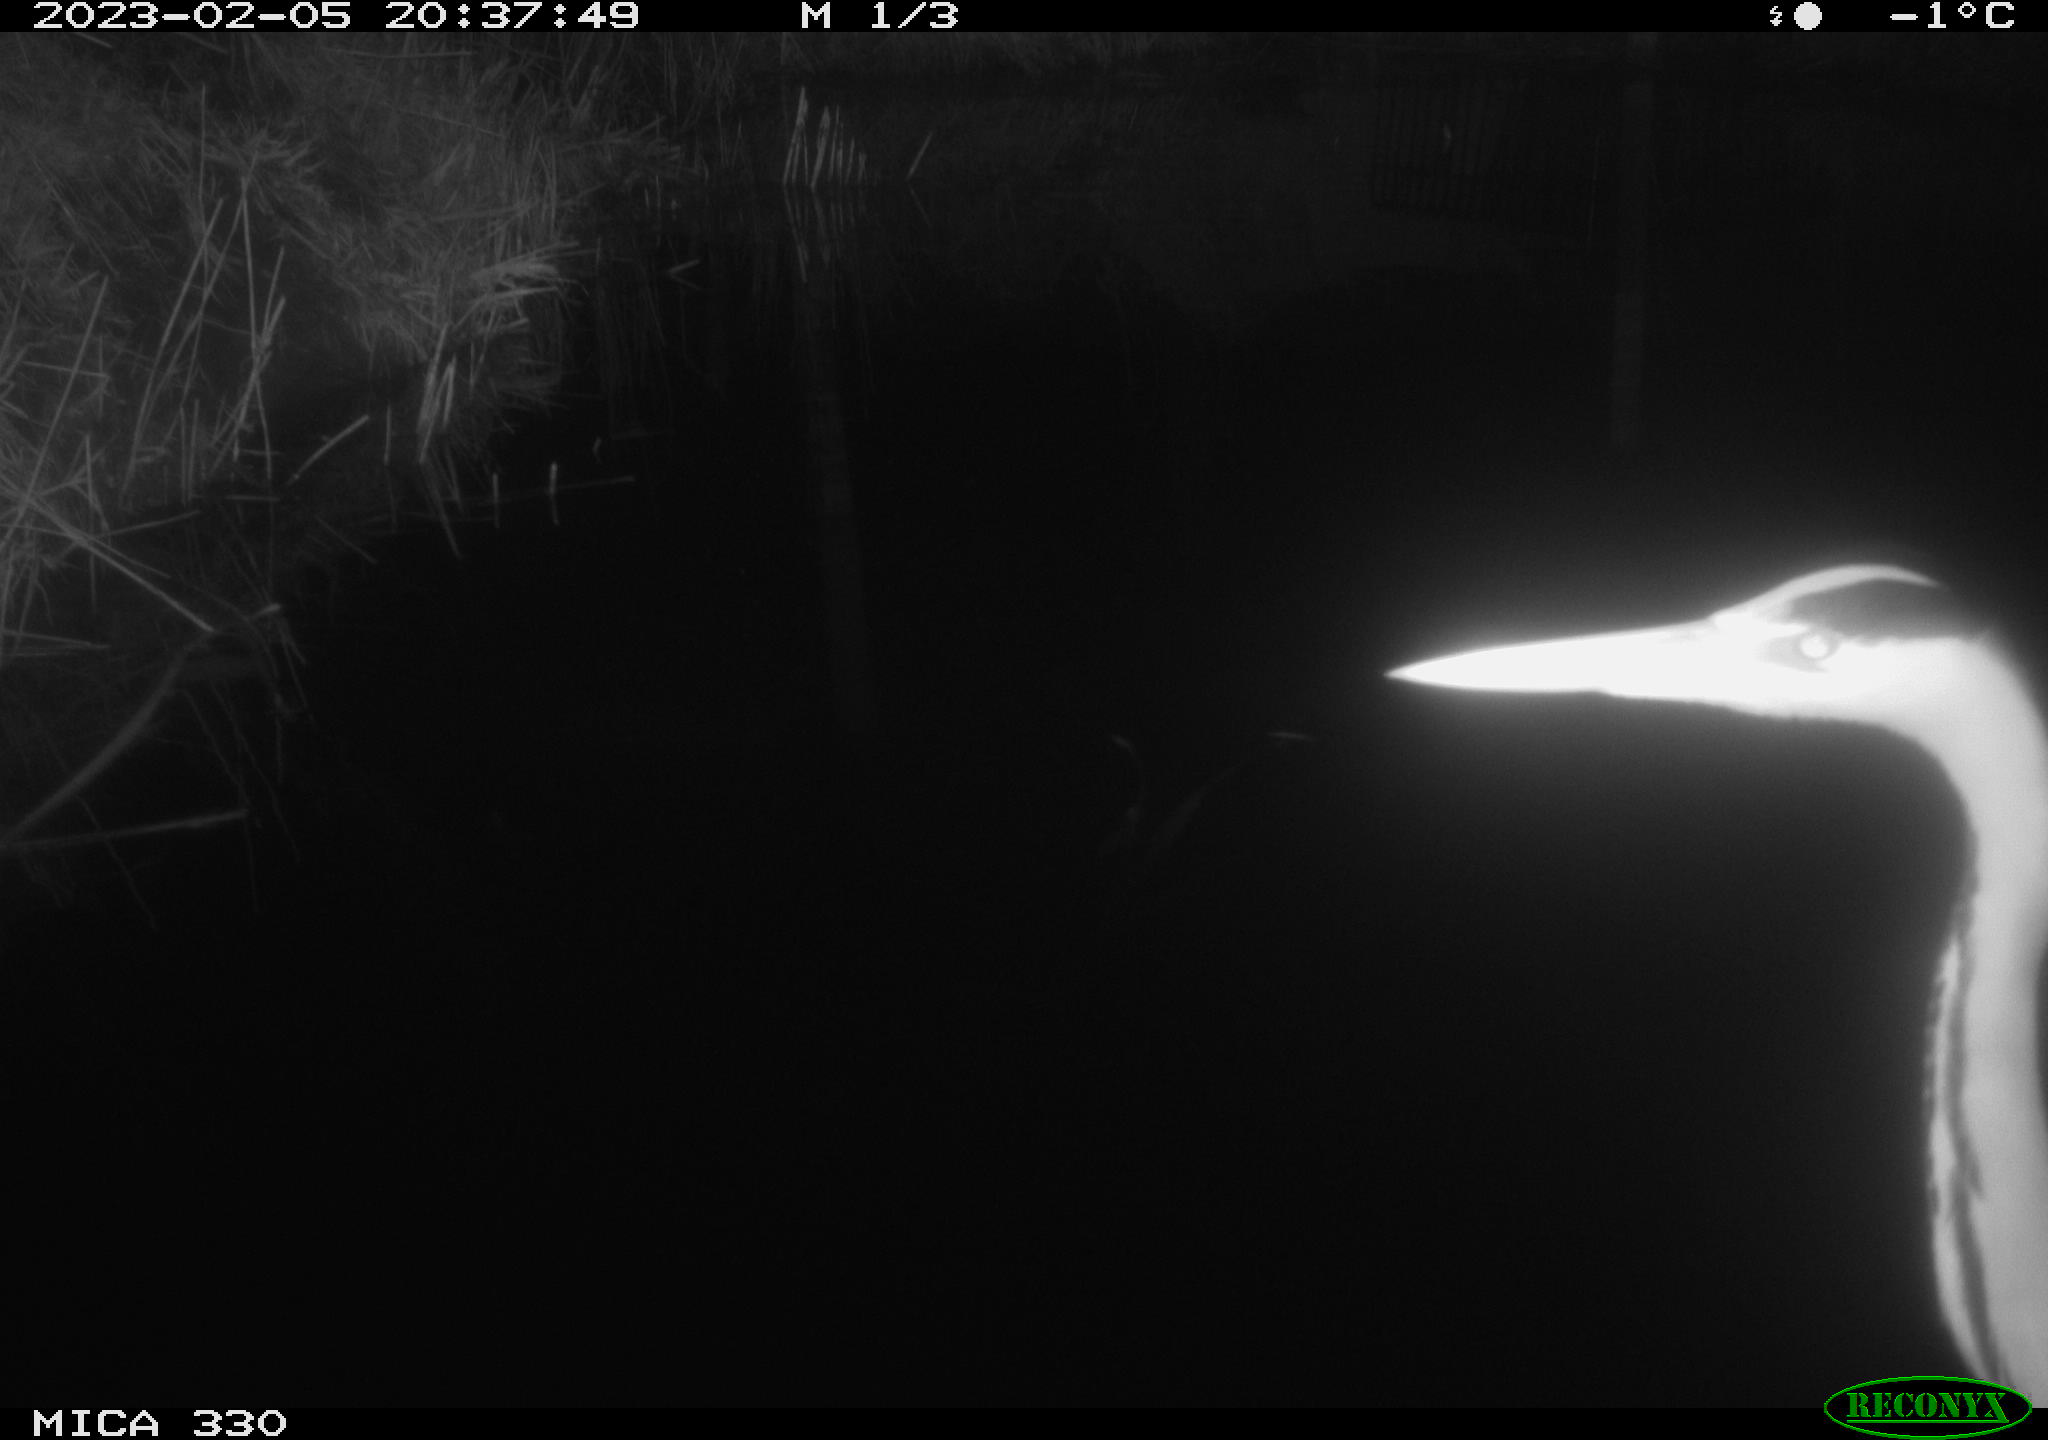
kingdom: Animalia
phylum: Chordata
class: Aves
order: Pelecaniformes
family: Ardeidae
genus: Ardea
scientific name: Ardea cinerea
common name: Grey heron
